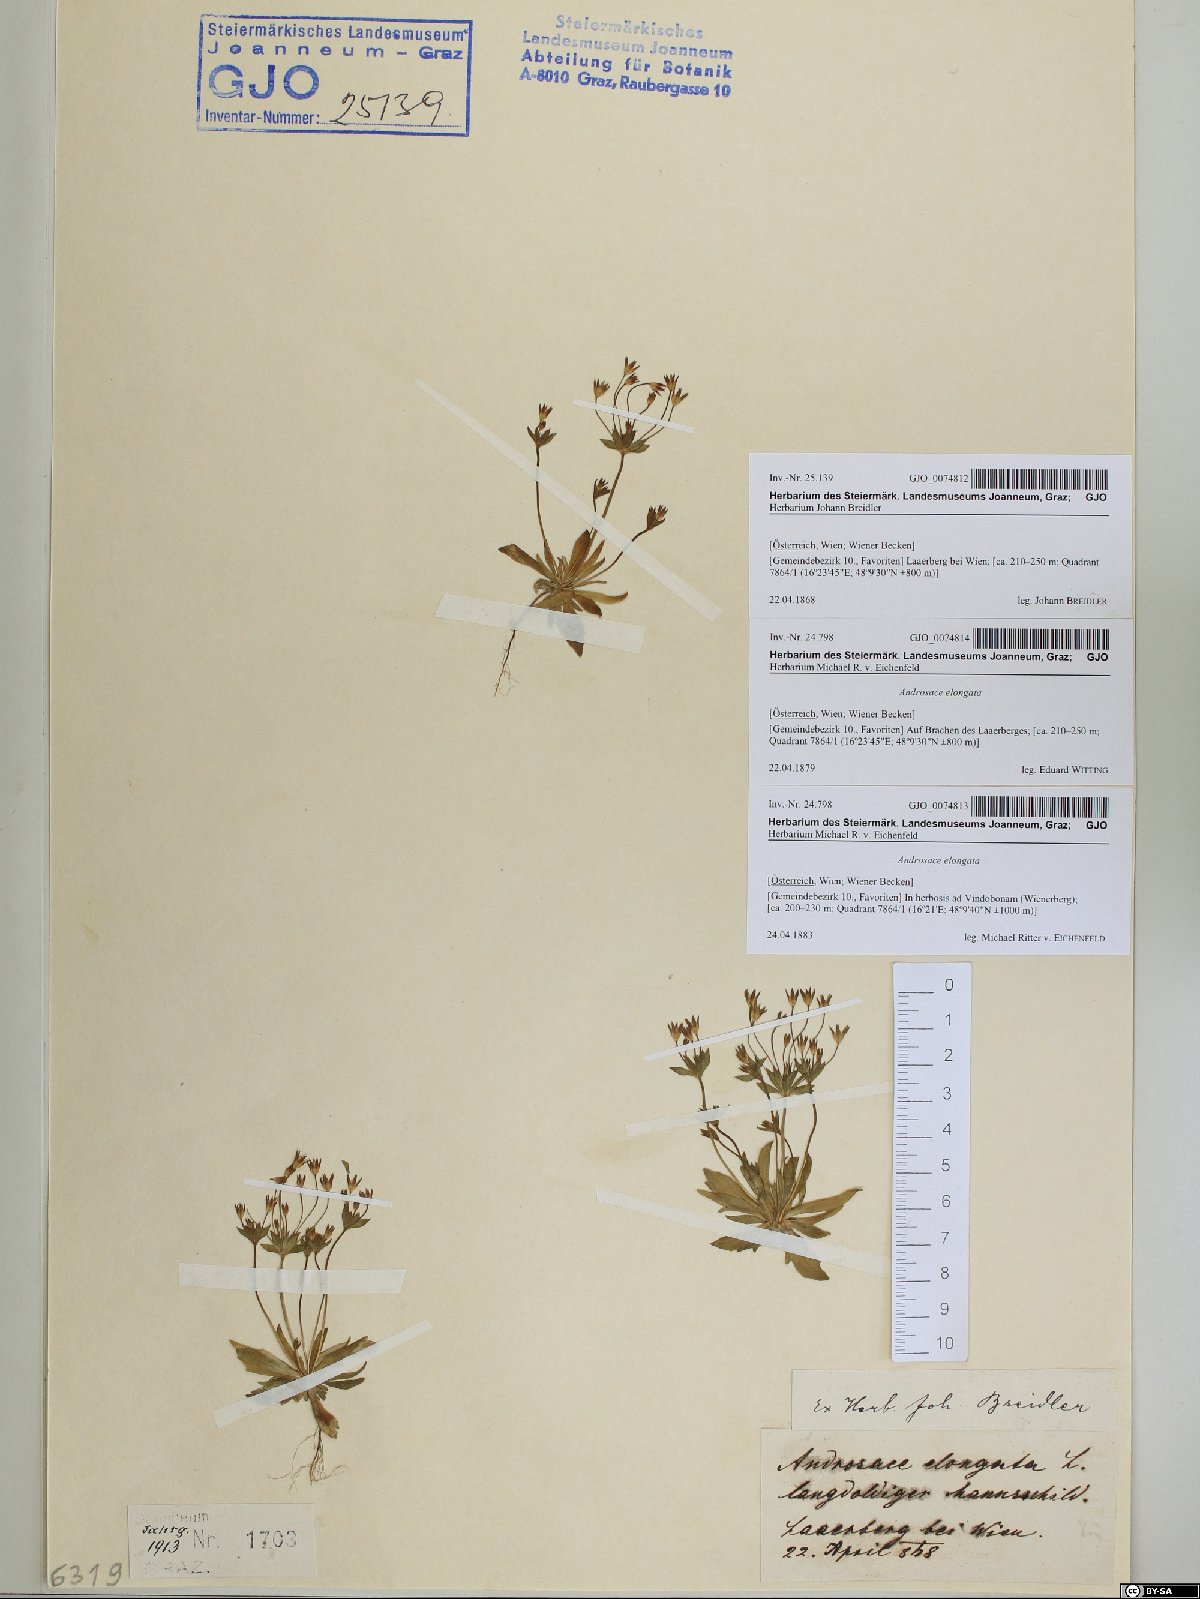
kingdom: Plantae
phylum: Tracheophyta
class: Magnoliopsida
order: Ericales
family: Primulaceae
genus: Androsace
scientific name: Androsace elongata
